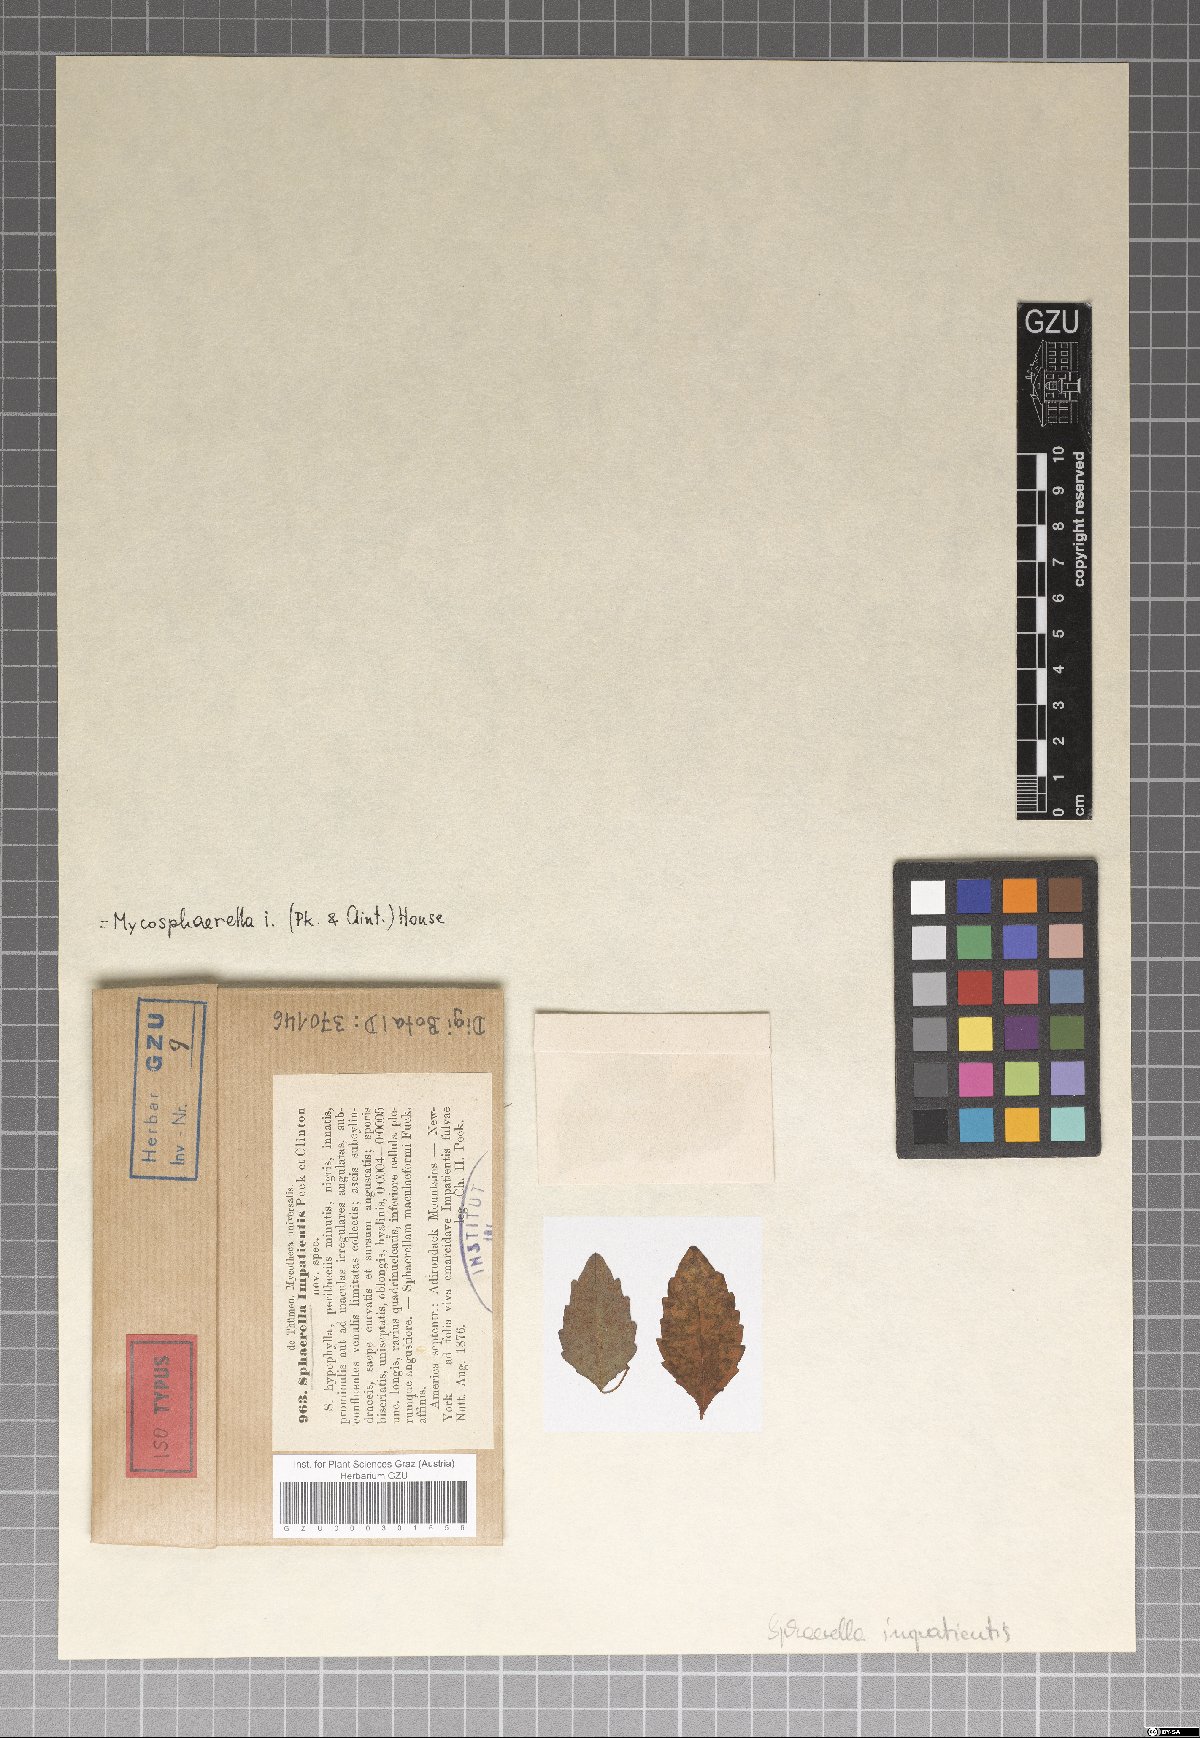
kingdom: Fungi
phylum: Ascomycota
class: Dothideomycetes
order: Mycosphaerellales
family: Mycosphaerellaceae
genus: Mycosphaerella
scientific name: Mycosphaerella impatientis
